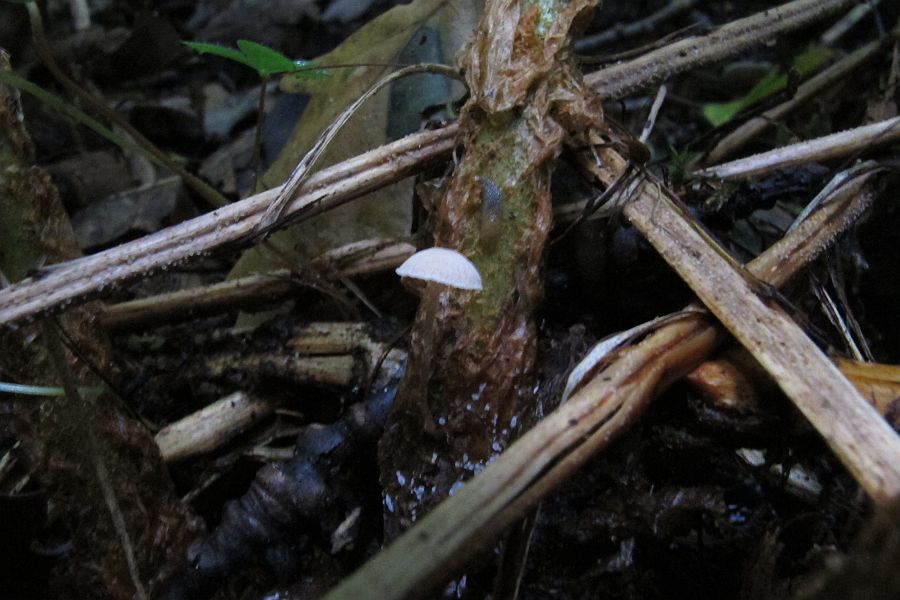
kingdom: Fungi
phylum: Basidiomycota
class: Agaricomycetes
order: Agaricales
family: Tubariaceae
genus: Flammulaster
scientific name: Flammulaster carpophilus
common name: blegrosa grynskælhat
